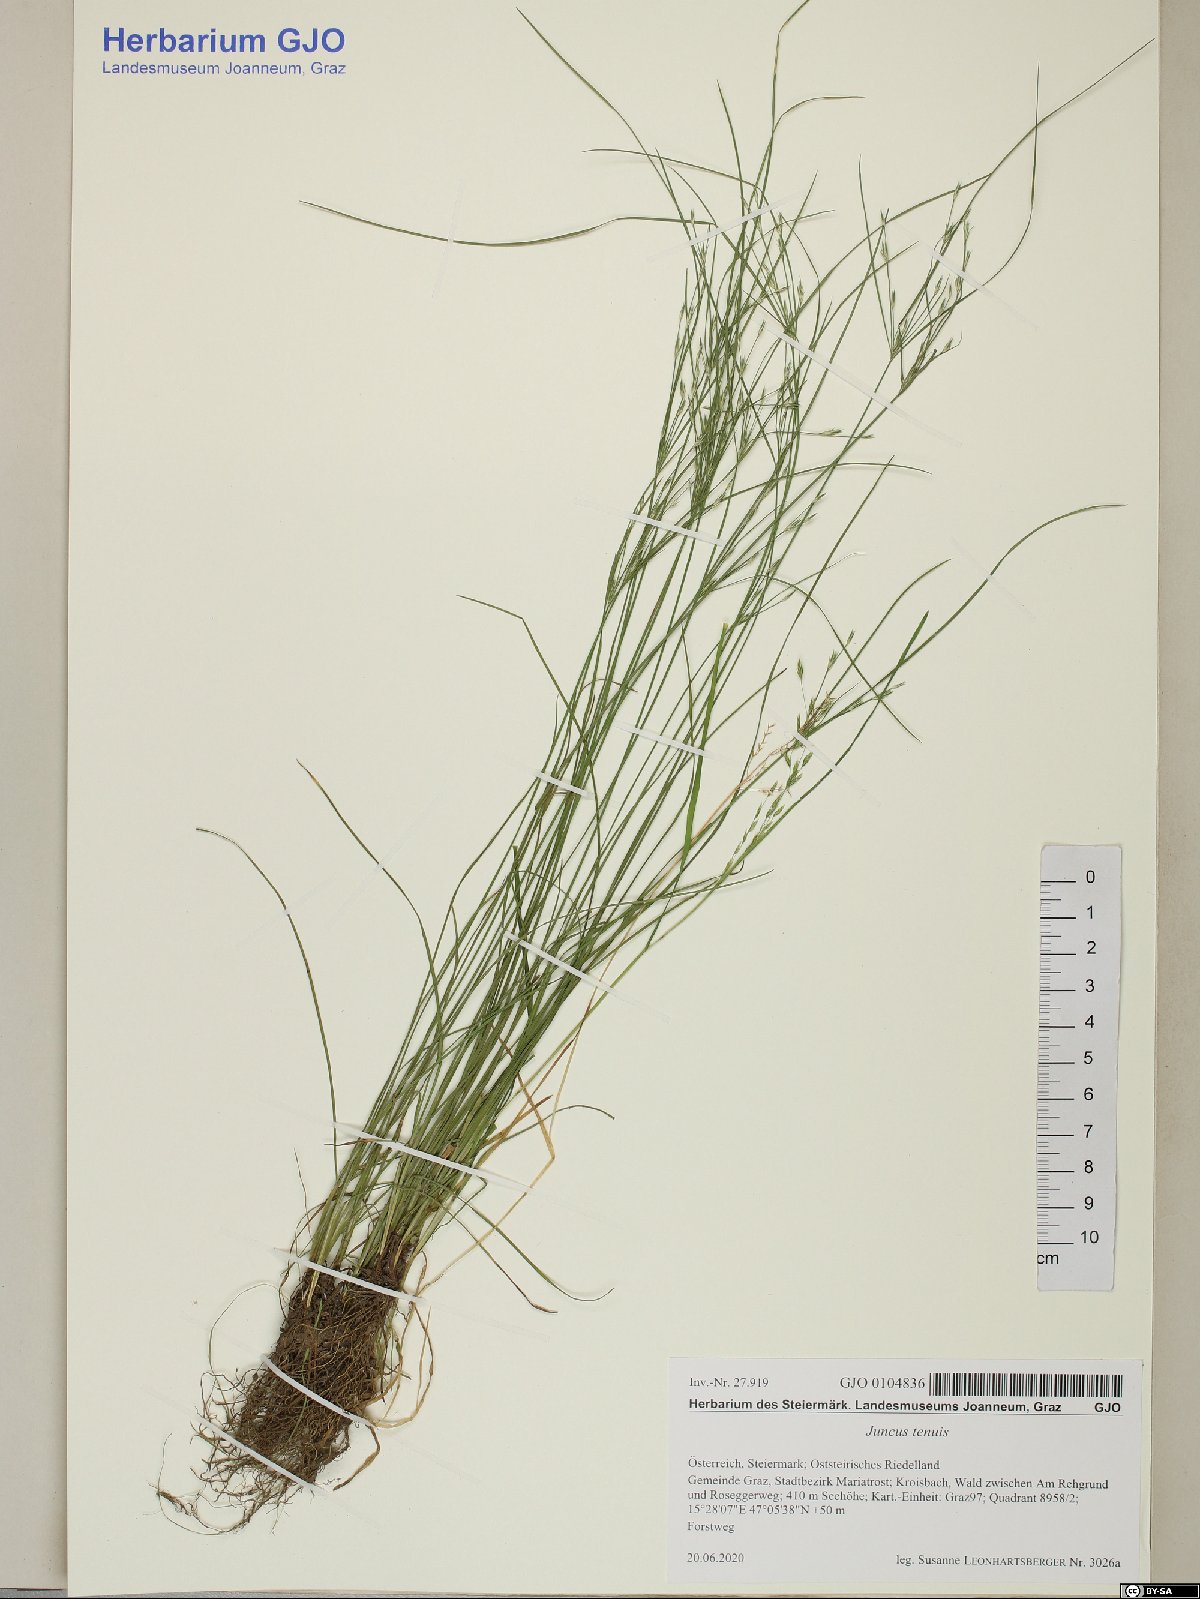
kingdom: Plantae
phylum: Tracheophyta
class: Liliopsida
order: Poales
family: Juncaceae
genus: Juncus
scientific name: Juncus tenuis
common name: Slender rush
